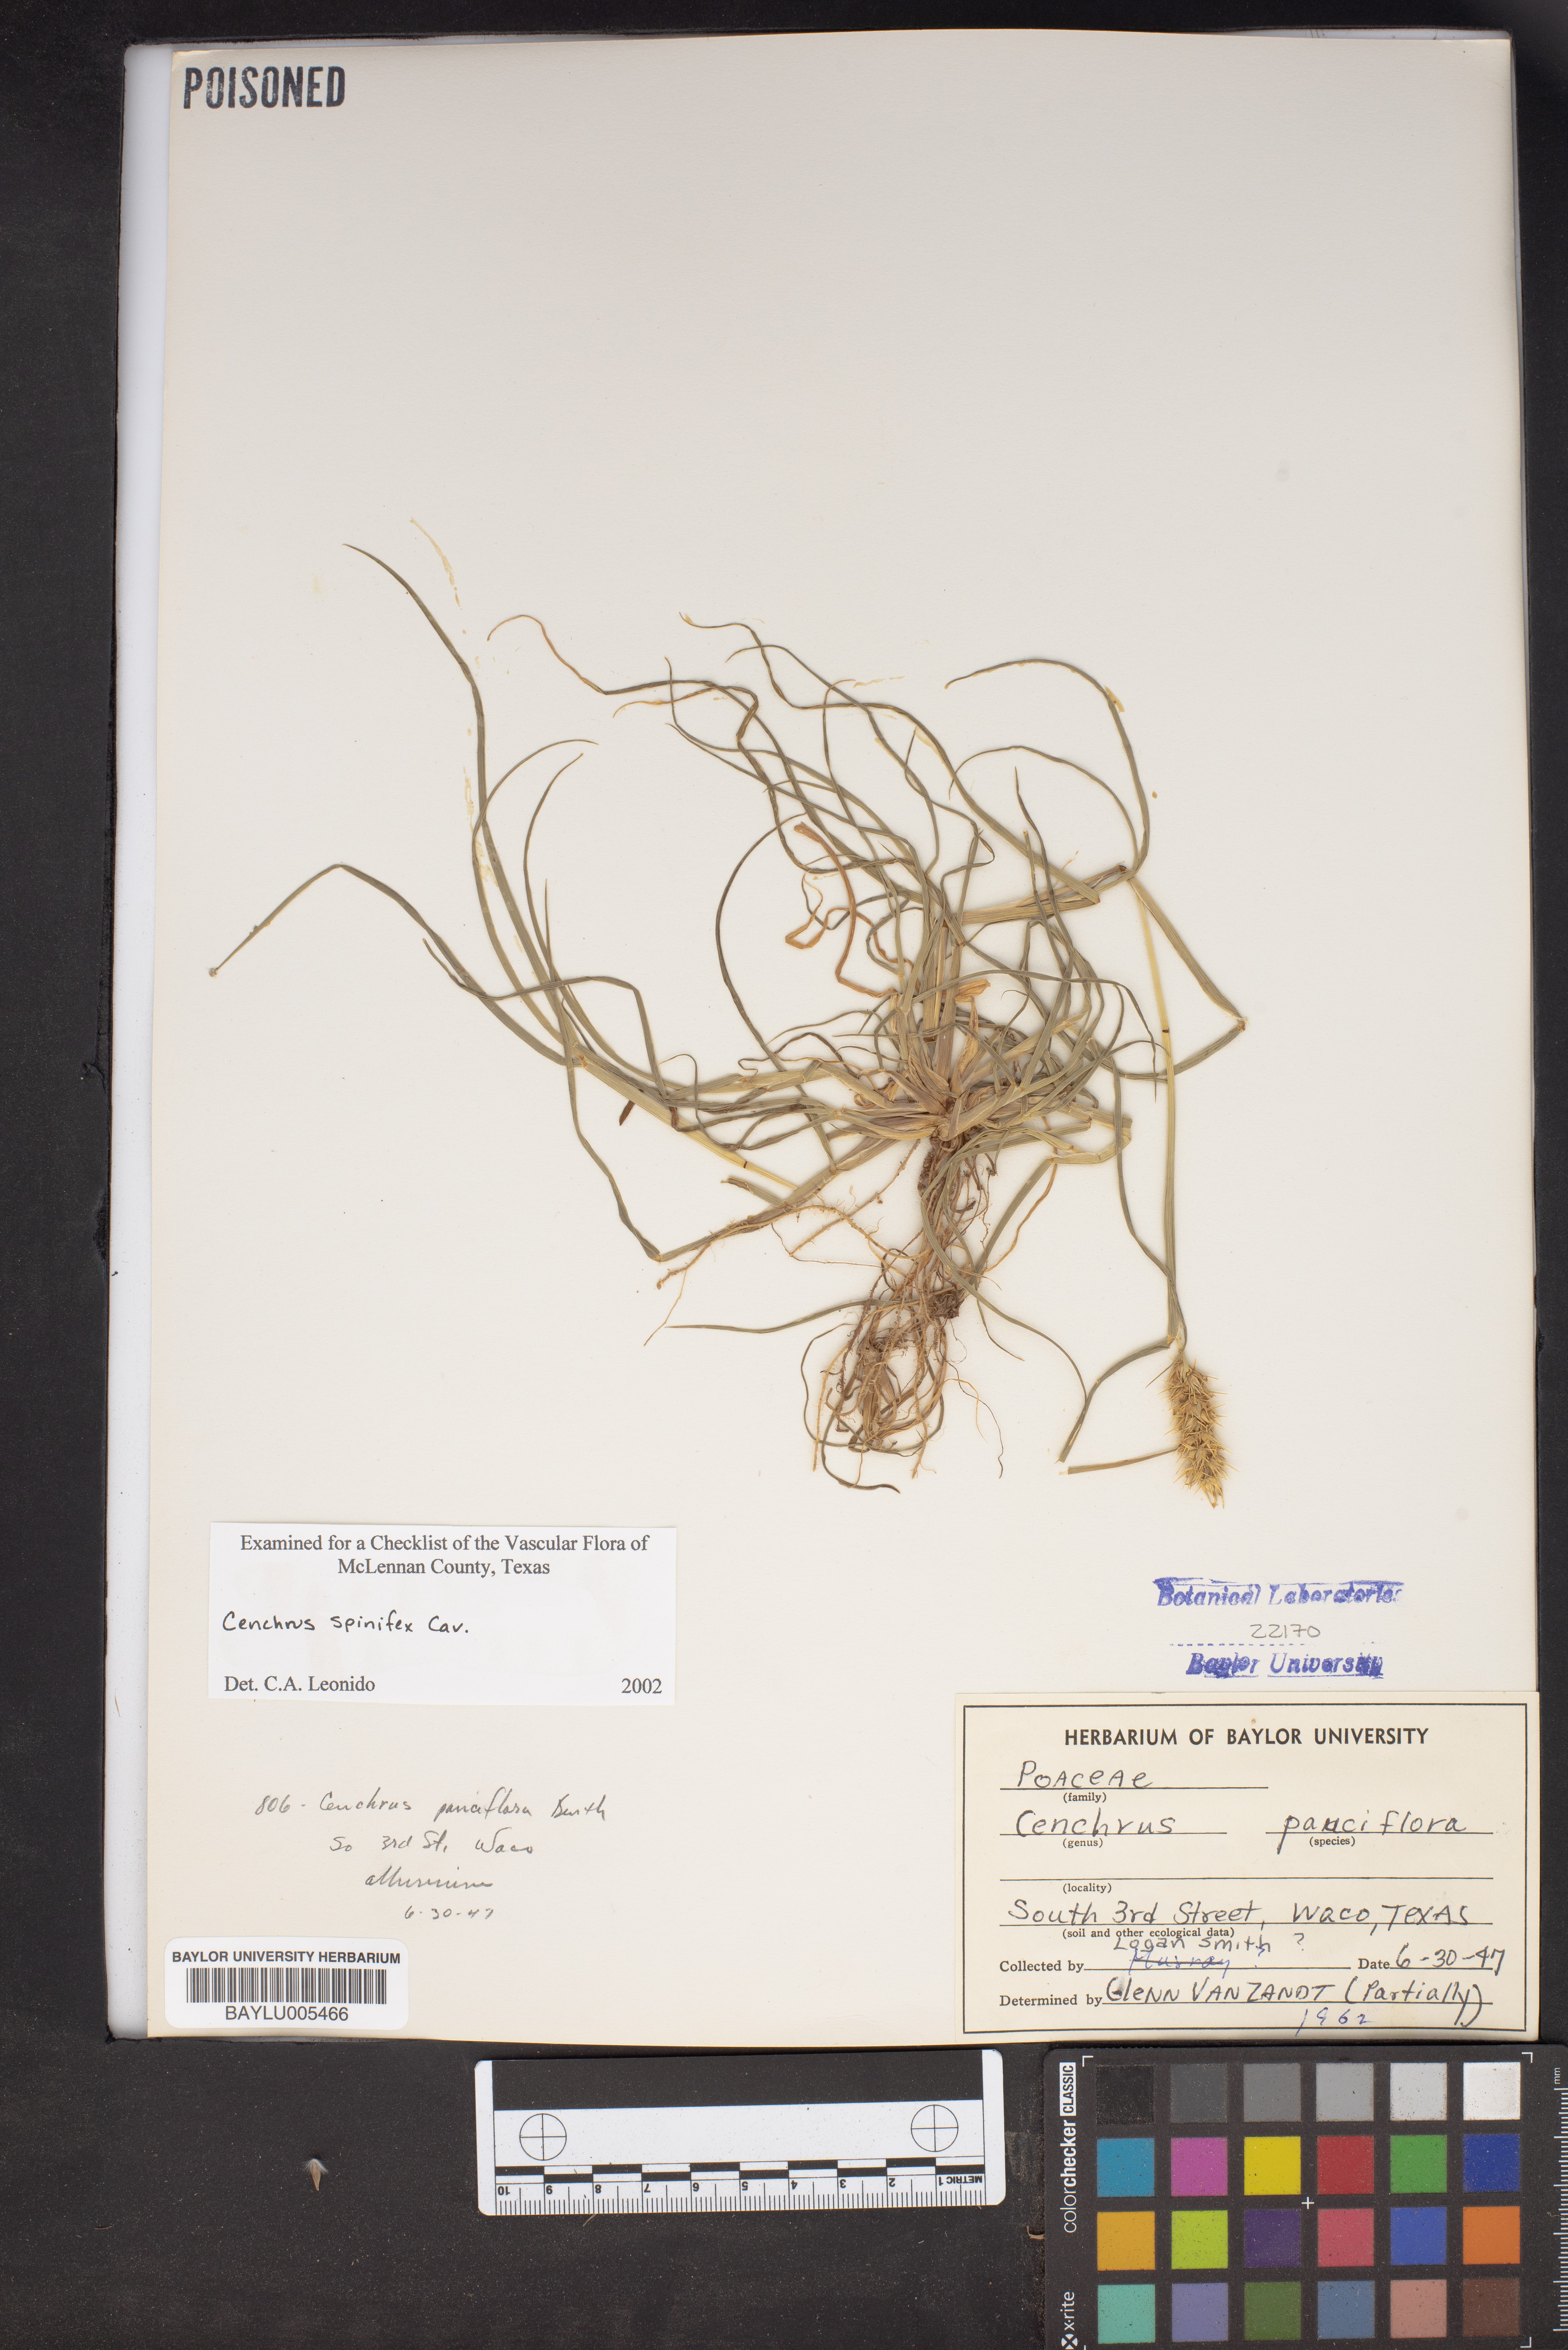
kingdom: Plantae
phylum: Tracheophyta
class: Liliopsida
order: Poales
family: Poaceae
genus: Cenchrus
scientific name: Cenchrus spinifex
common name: Coast sandbur
